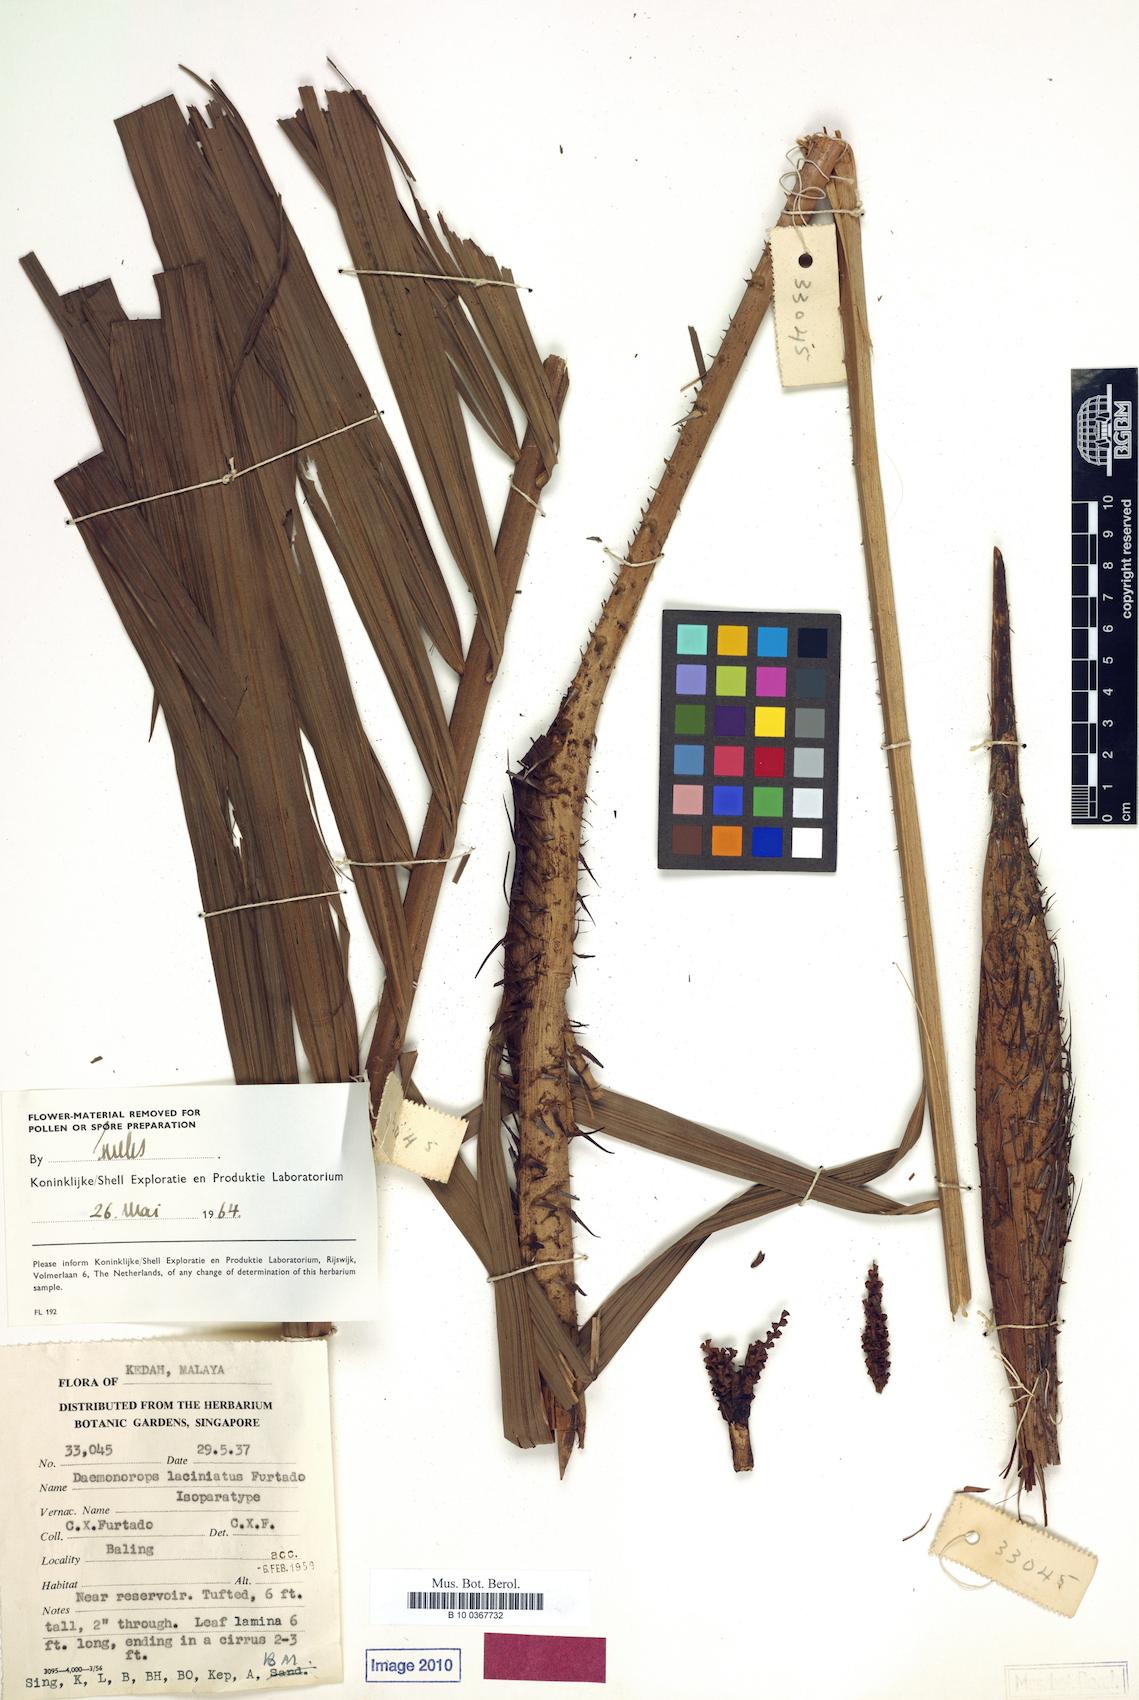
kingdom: Plantae
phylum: Tracheophyta
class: Liliopsida
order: Arecales
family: Arecaceae
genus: Calamus
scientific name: Calamus melanochaetes
